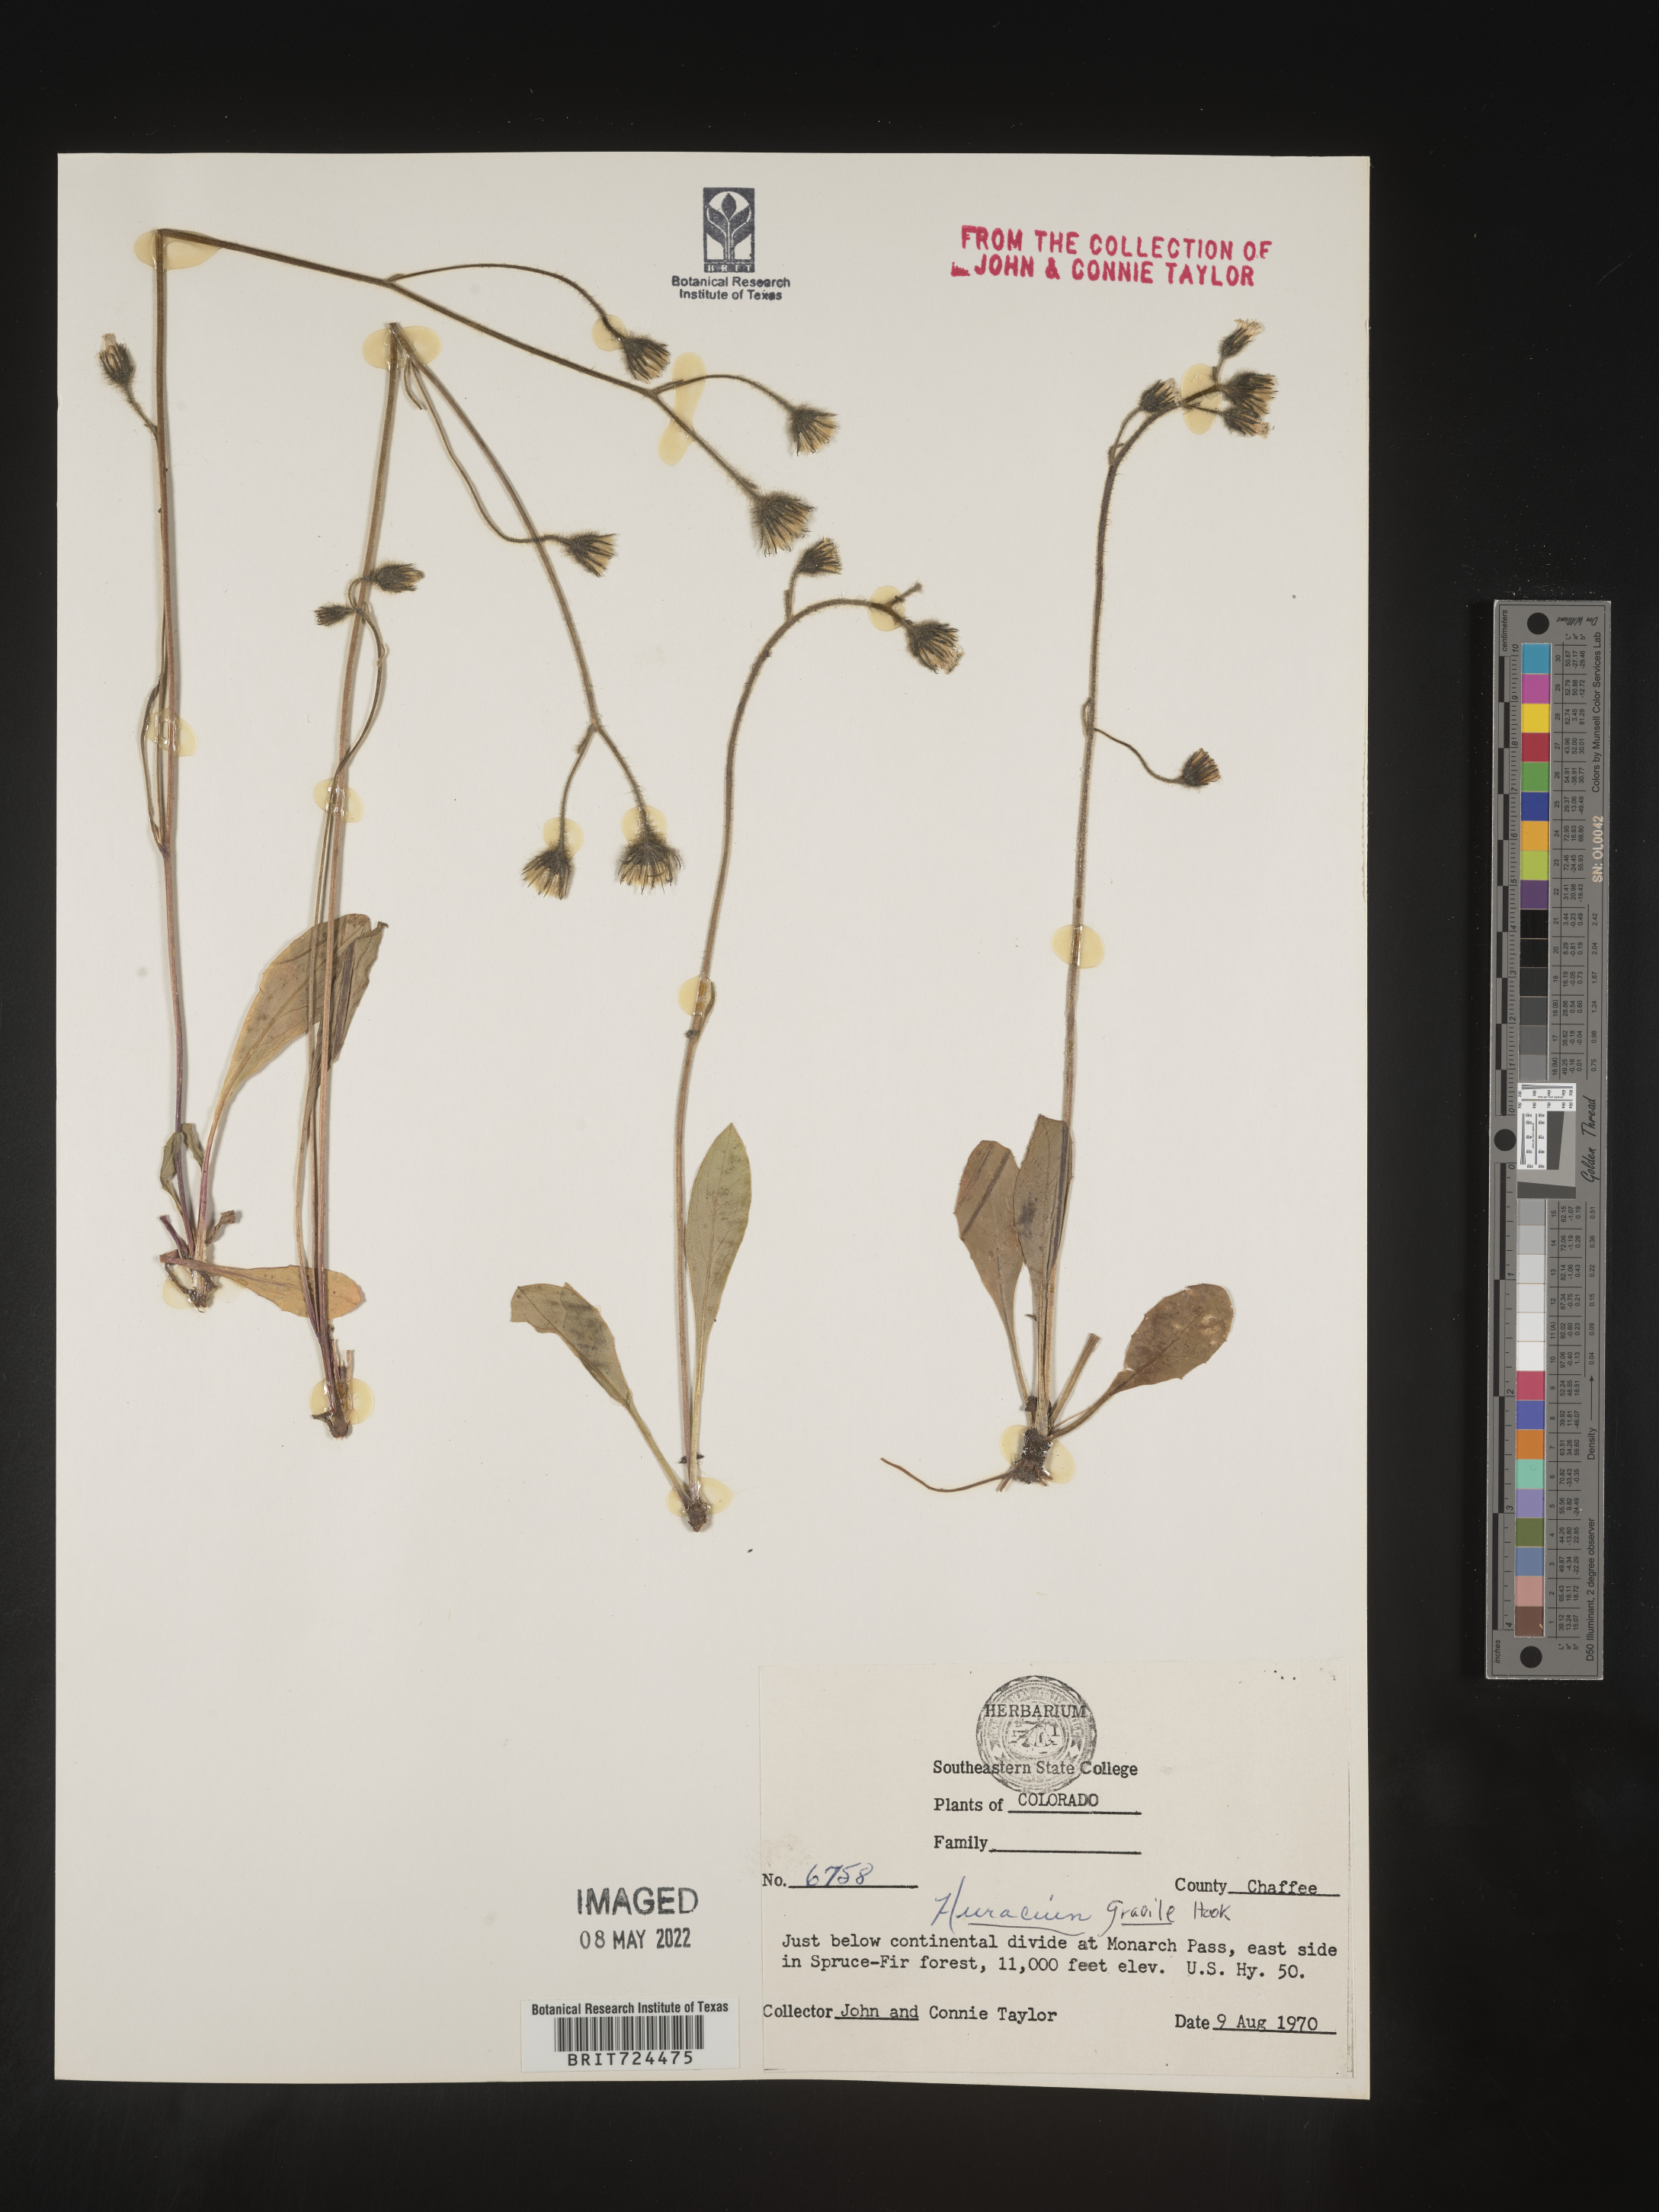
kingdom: Plantae
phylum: Tracheophyta
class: Magnoliopsida
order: Asterales
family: Asteraceae
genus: Hieracium
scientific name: Hieracium
